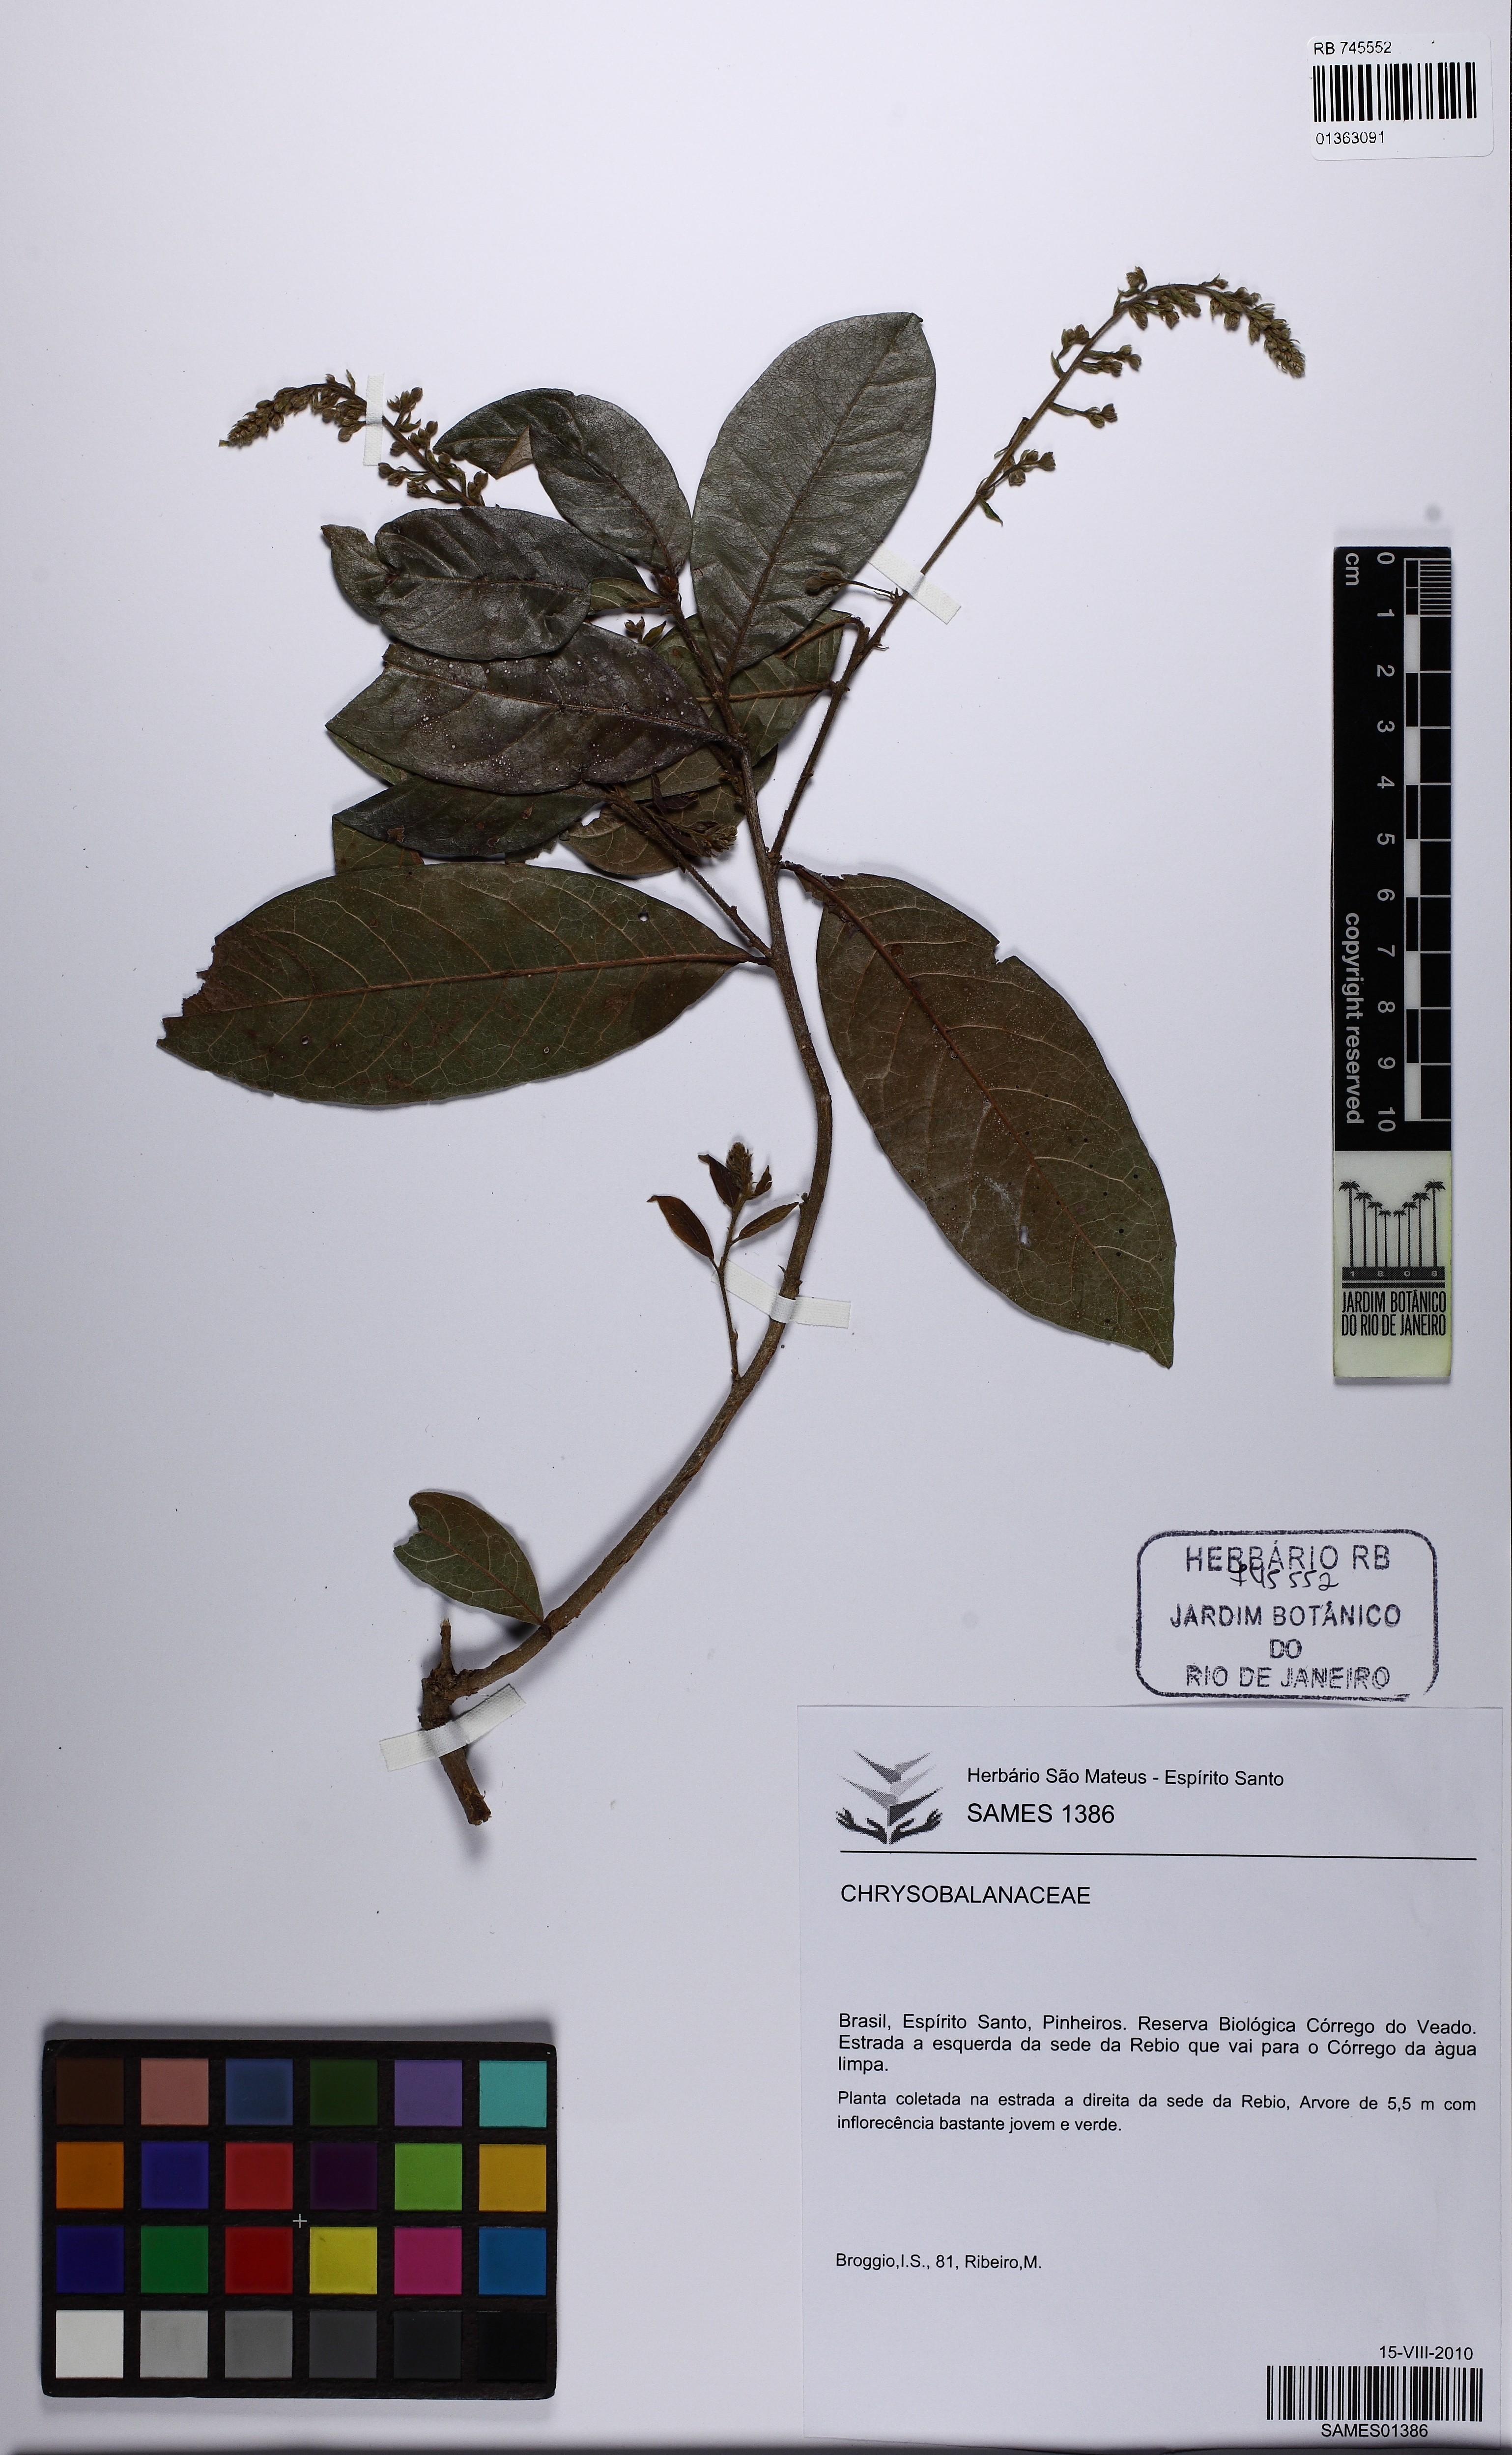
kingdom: Plantae
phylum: Tracheophyta
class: Magnoliopsida
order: Malpighiales
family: Chrysobalanaceae
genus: Hirtella
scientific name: Hirtella triandra
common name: Hairy plum
